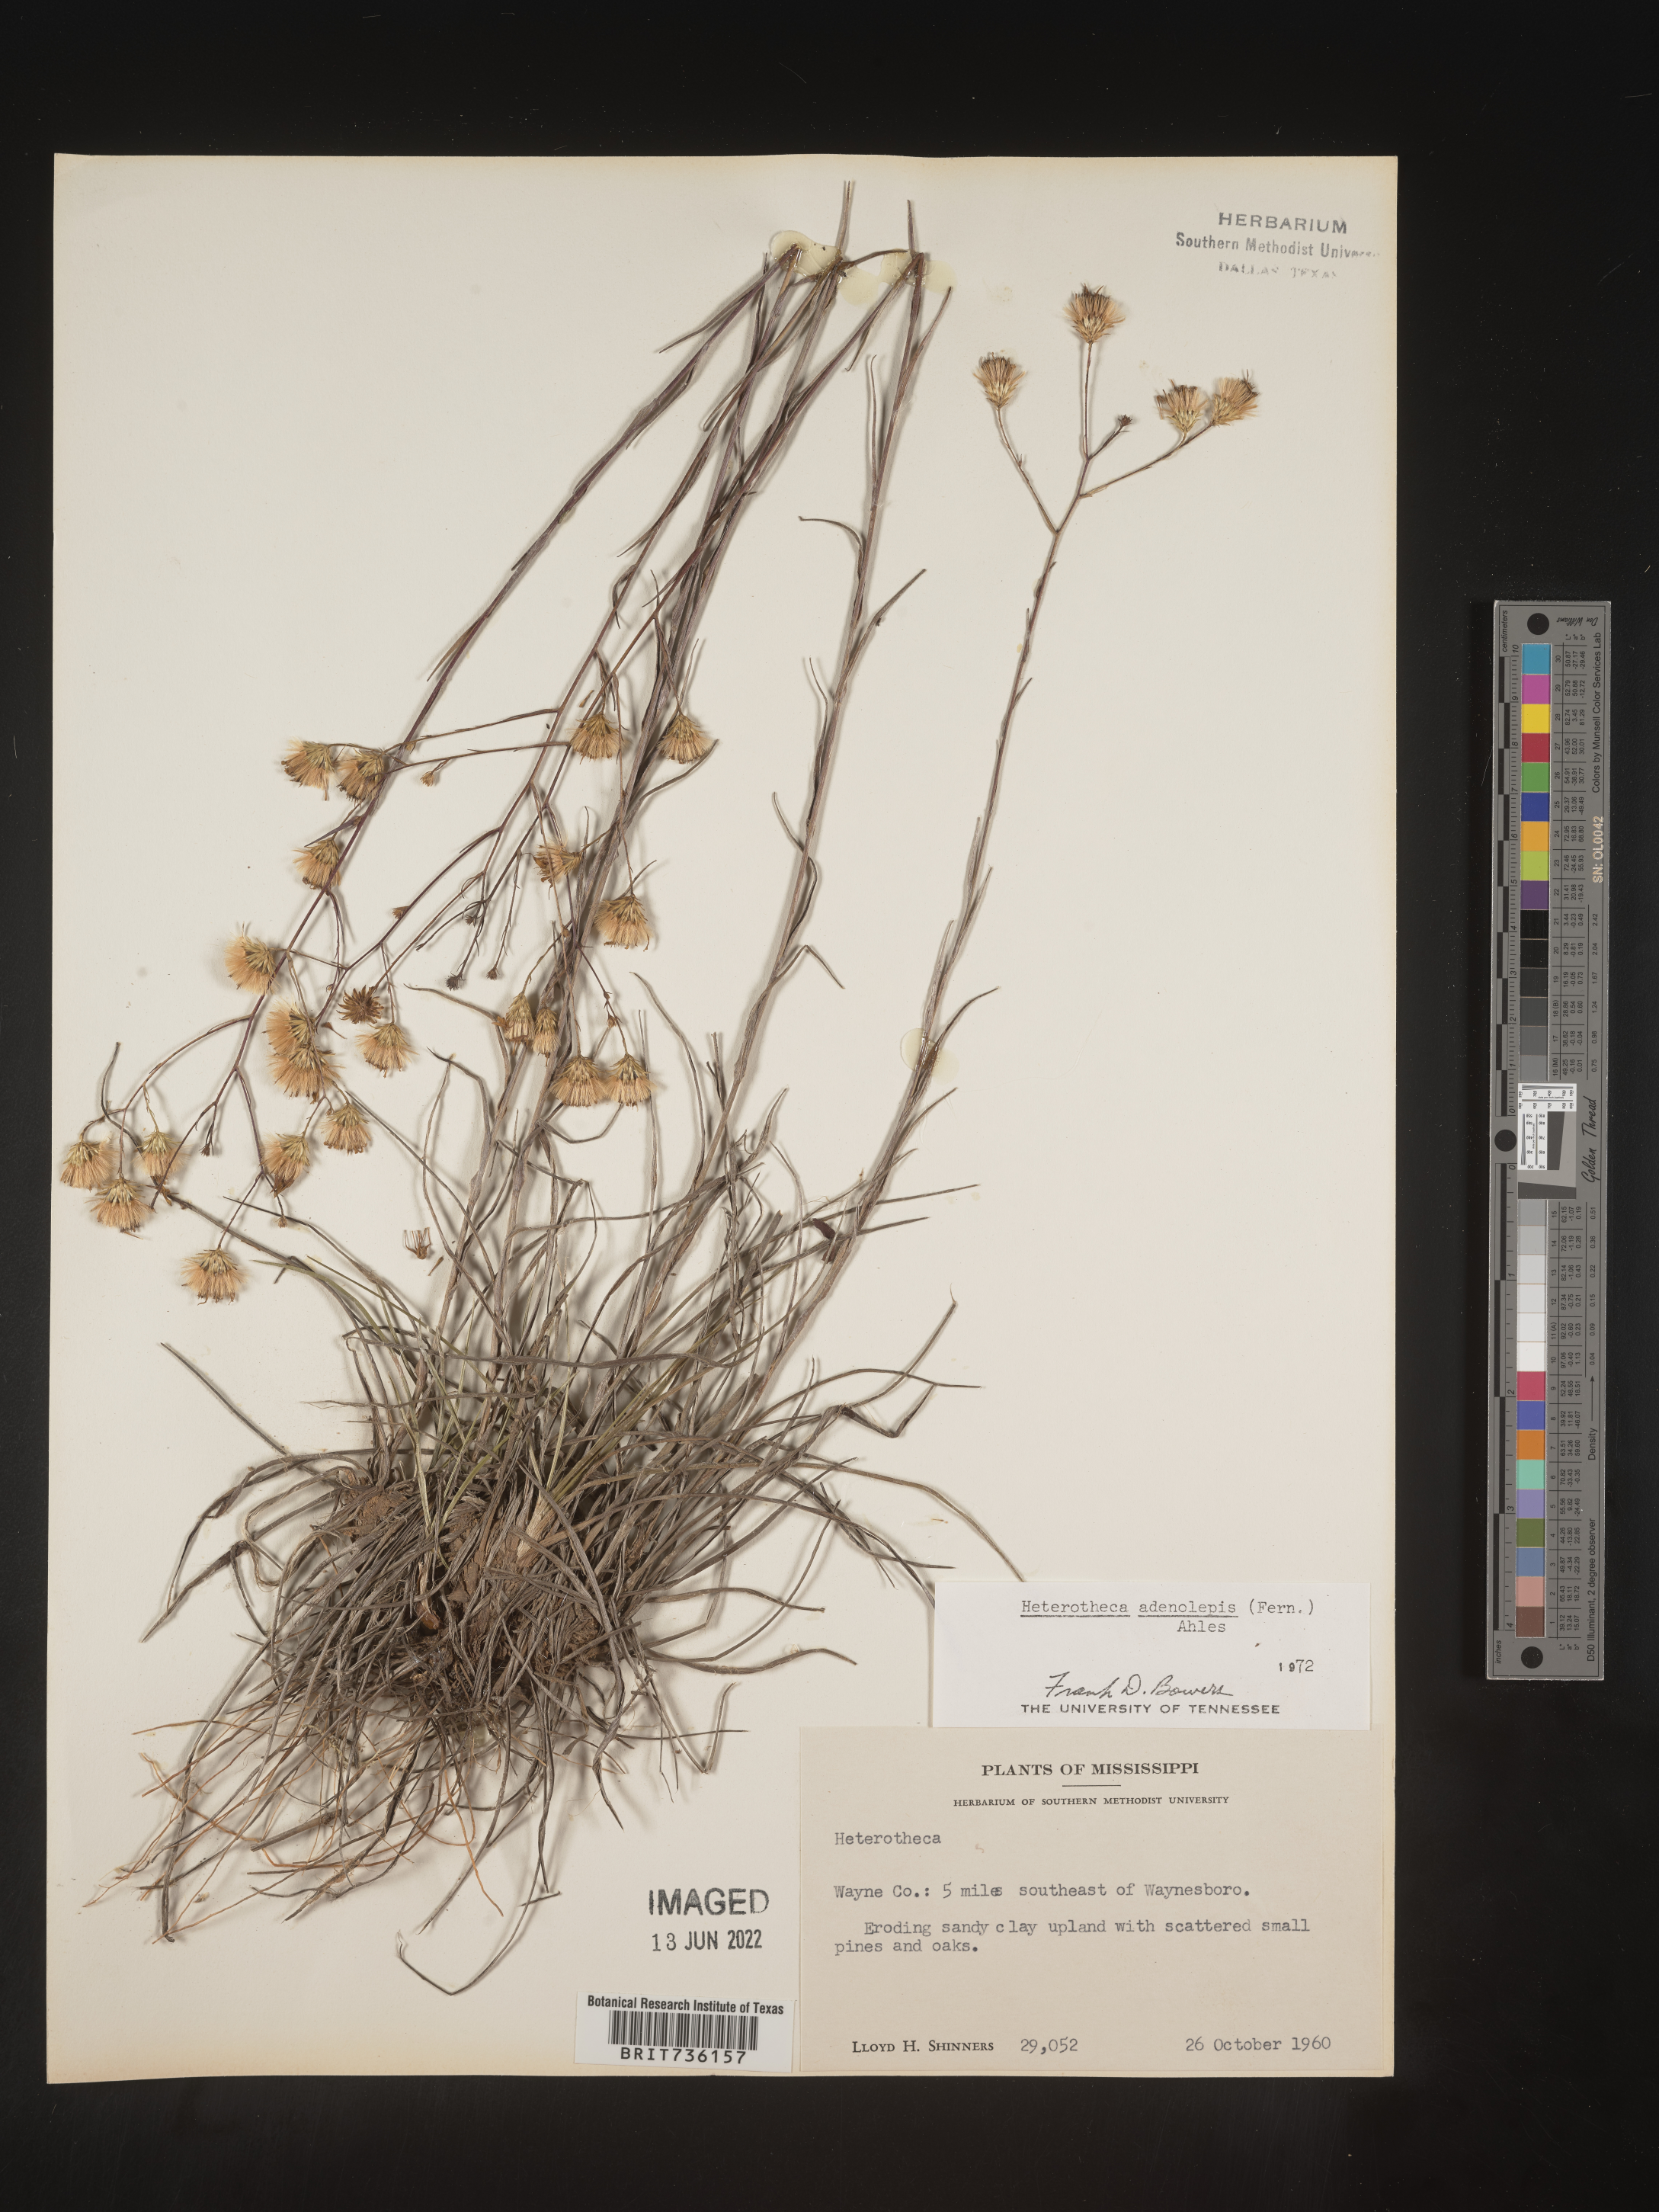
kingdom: Plantae
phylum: Tracheophyta
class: Magnoliopsida
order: Asterales
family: Asteraceae
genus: Pityopsis
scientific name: Pityopsis aspera
